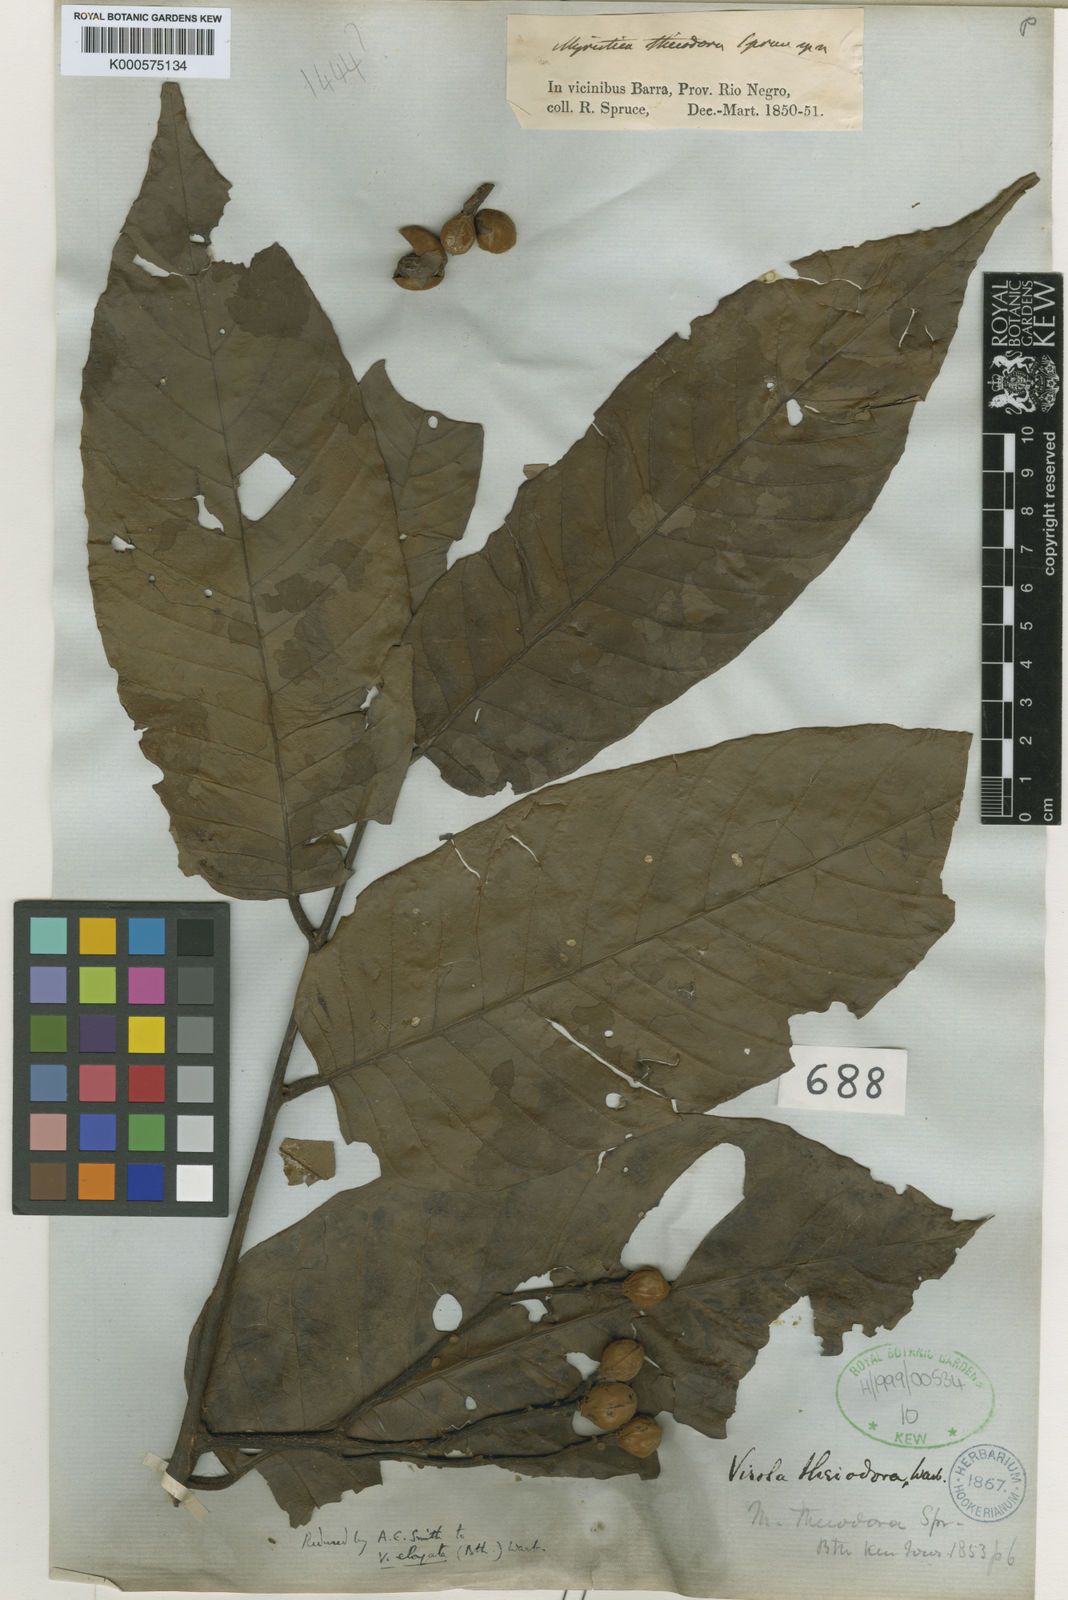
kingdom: Plantae
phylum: Tracheophyta
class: Magnoliopsida
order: Magnoliales
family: Myristicaceae
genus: Virola
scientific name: Virola elongata
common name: Sacred virola
